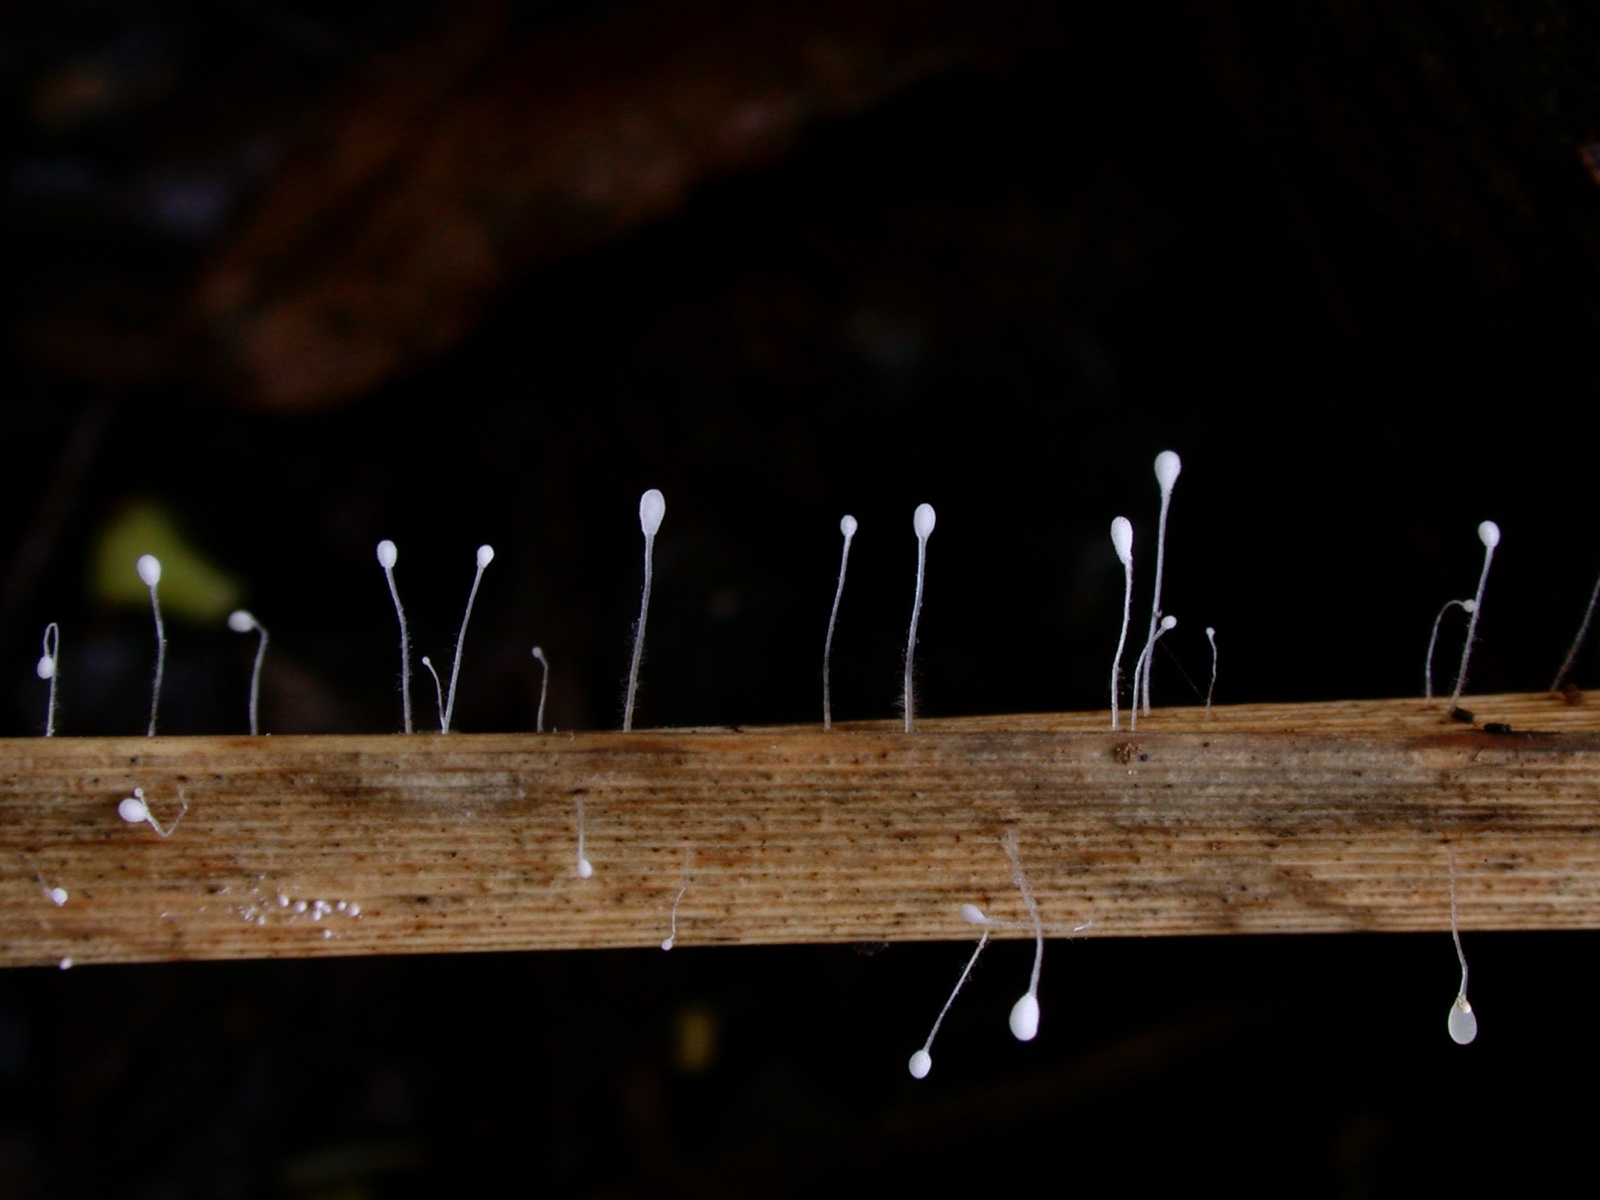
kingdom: Fungi
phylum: Basidiomycota
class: Agaricomycetes
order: Agaricales
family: Typhulaceae
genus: Typhula
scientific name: Typhula caricina
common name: star-trådkølle
